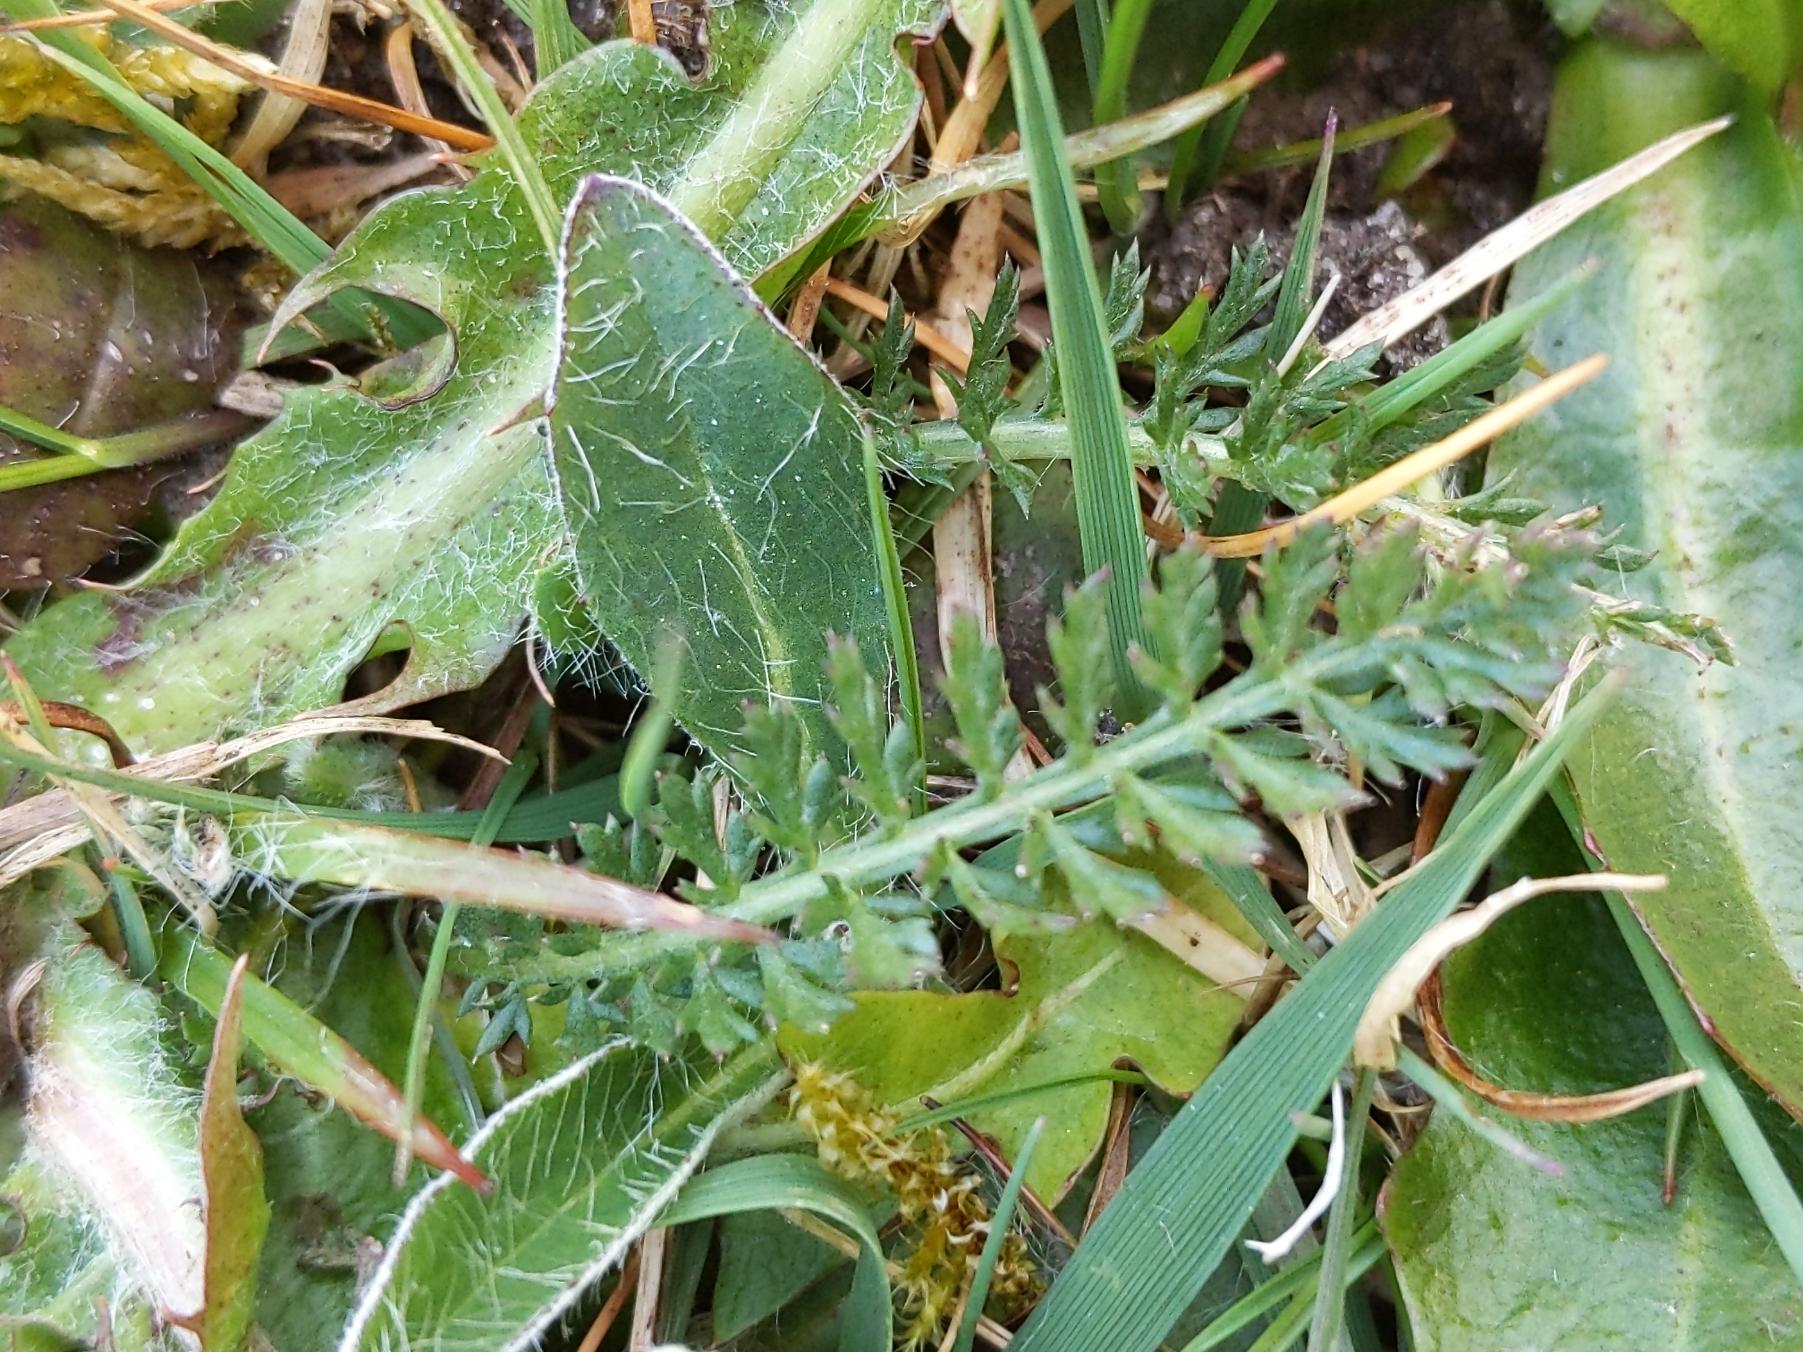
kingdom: Plantae
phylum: Tracheophyta
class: Magnoliopsida
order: Asterales
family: Asteraceae
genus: Achillea
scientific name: Achillea millefolium
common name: Almindelig røllike
